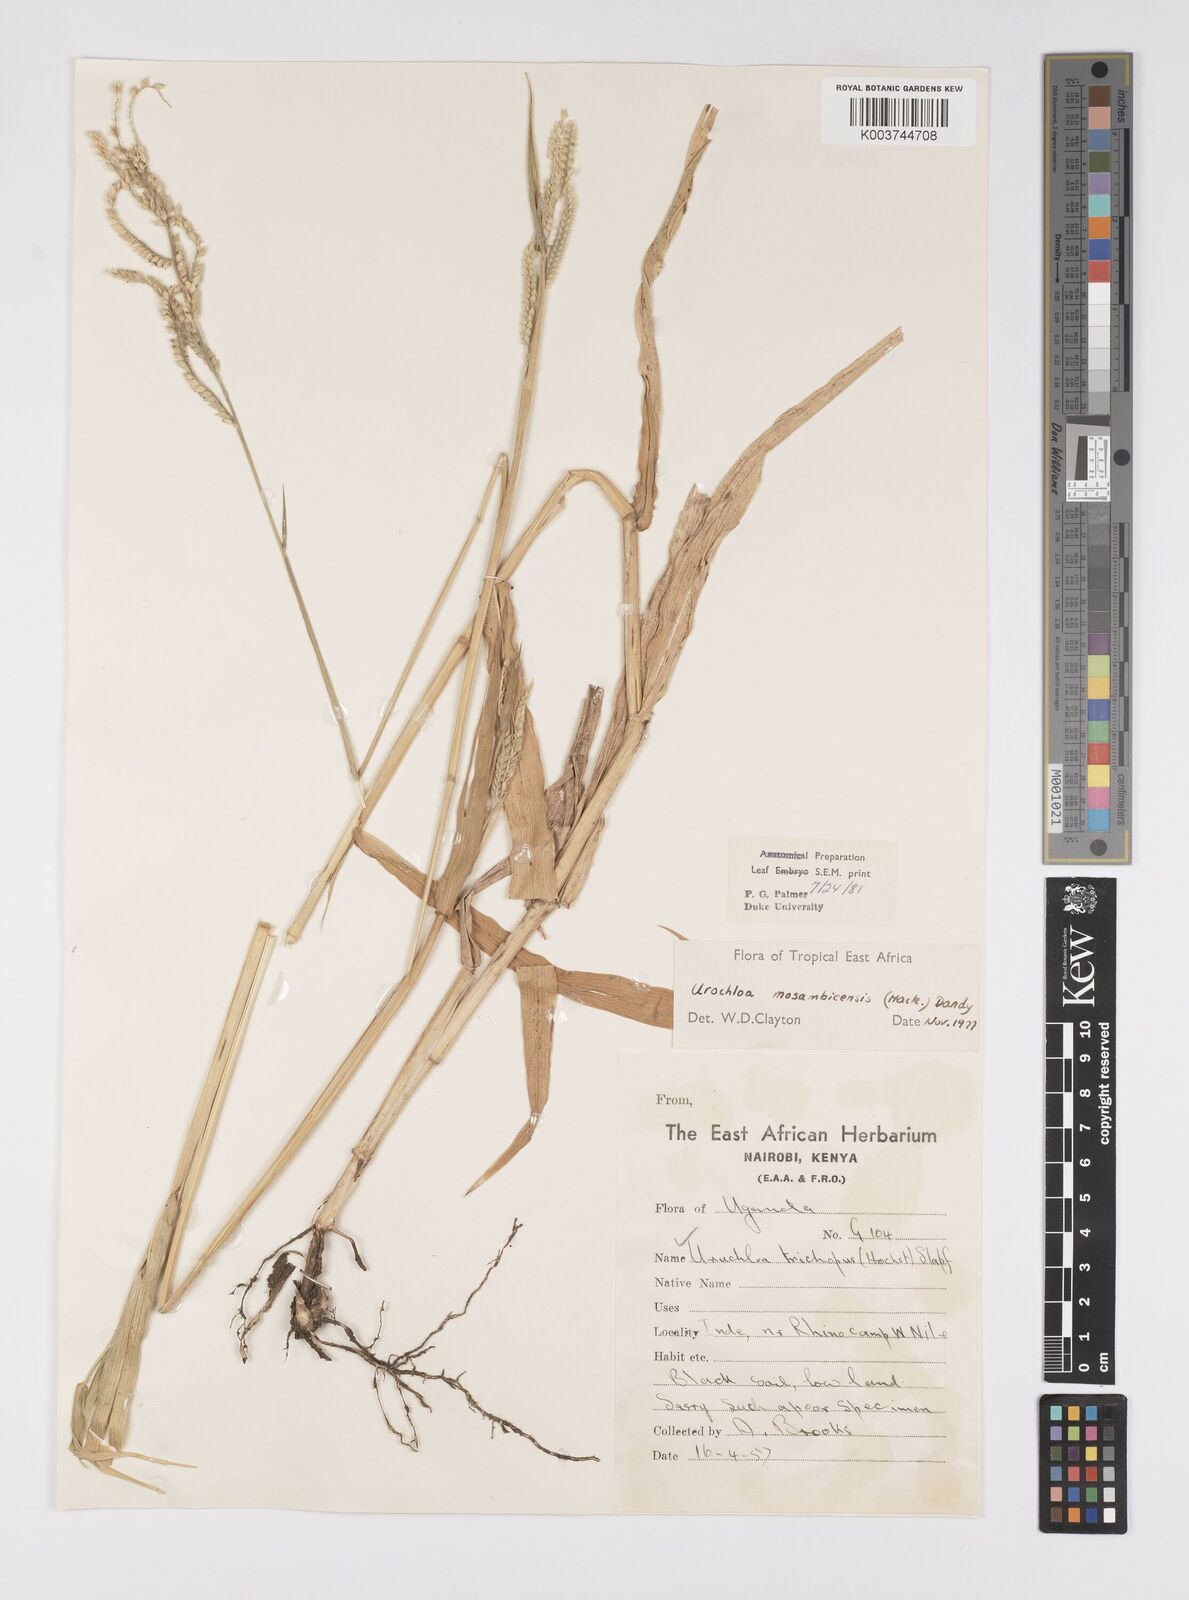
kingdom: Plantae
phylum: Tracheophyta
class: Liliopsida
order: Poales
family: Poaceae
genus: Urochloa
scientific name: Urochloa trichopus
